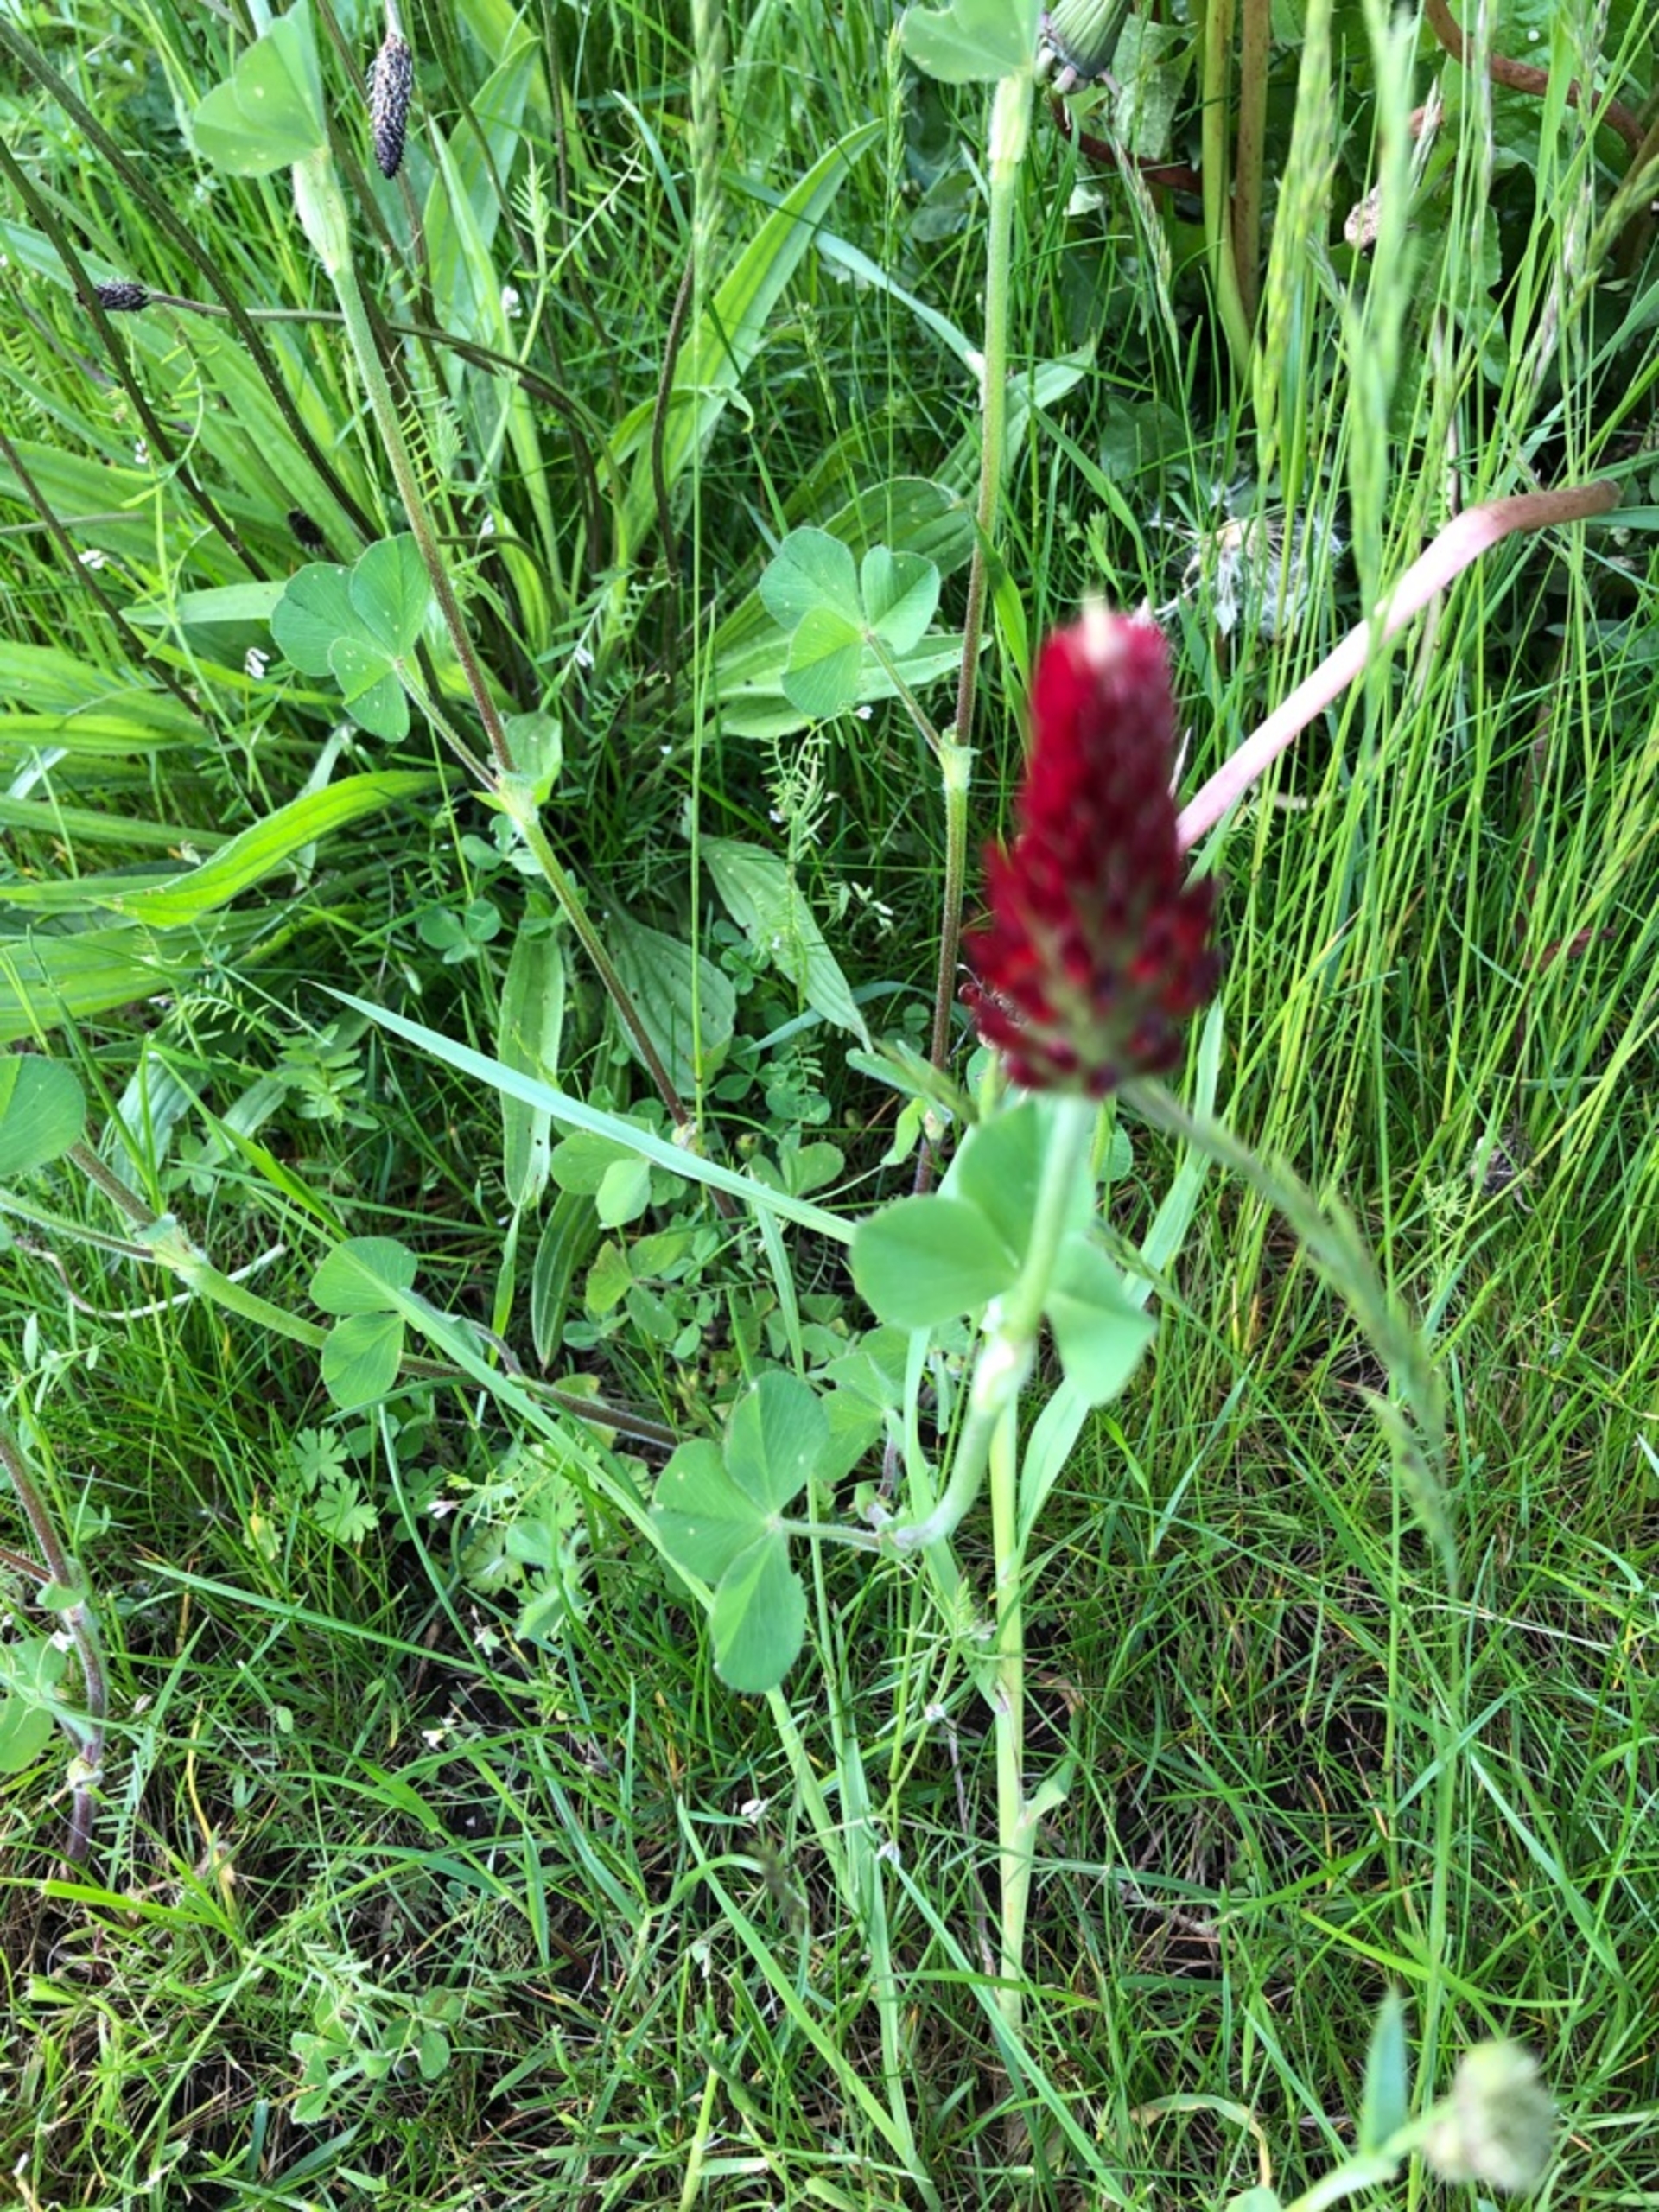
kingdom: Plantae
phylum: Tracheophyta
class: Magnoliopsida
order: Fabales
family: Fabaceae
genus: Trifolium
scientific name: Trifolium incarnatum
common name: Blod-kløver
